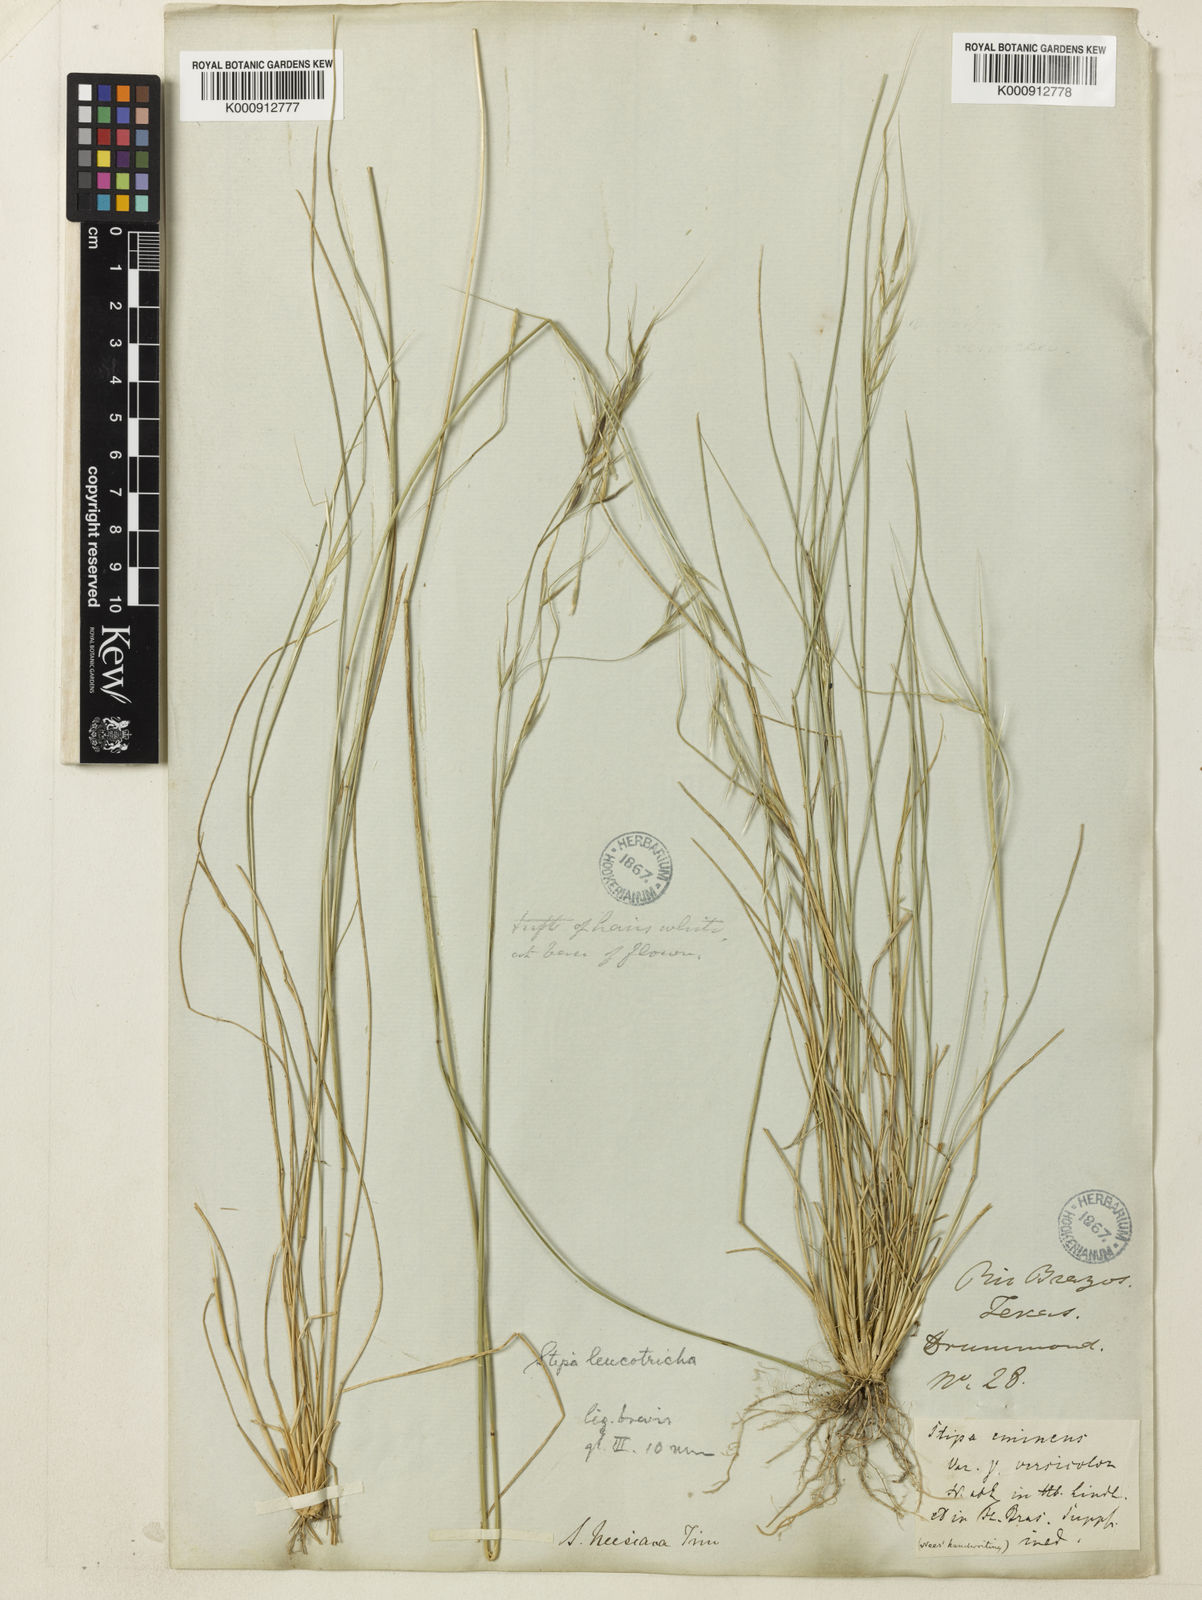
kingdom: Plantae
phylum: Tracheophyta
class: Liliopsida
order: Poales
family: Poaceae
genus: Nassella
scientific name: Nassella leucotricha
